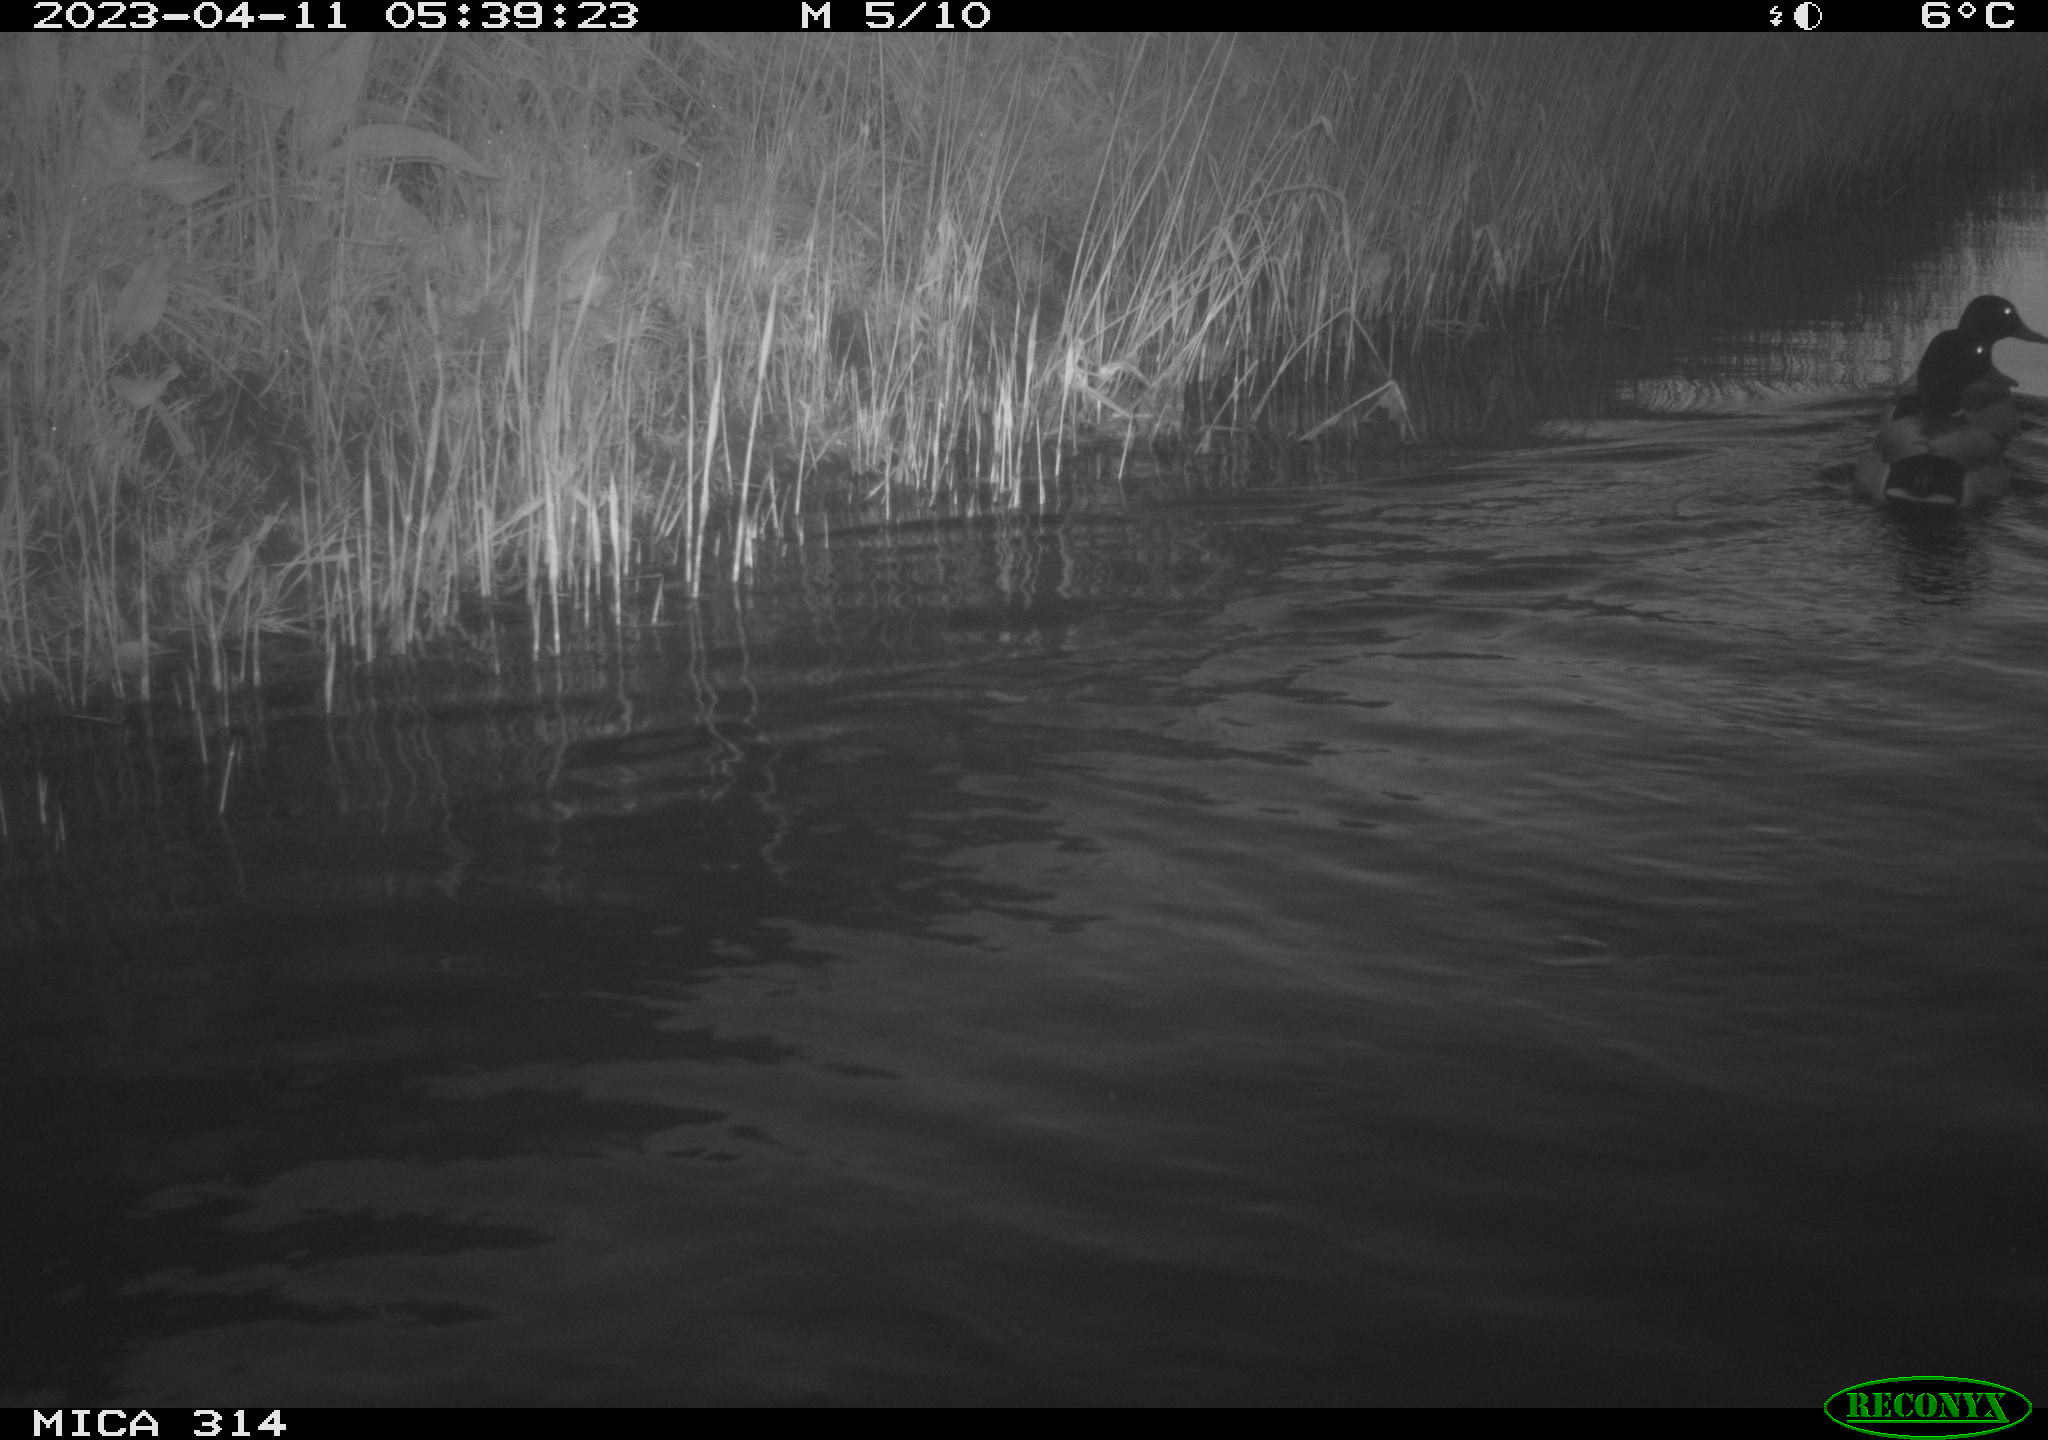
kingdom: Animalia
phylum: Chordata
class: Aves
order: Anseriformes
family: Anatidae
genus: Anas
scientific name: Anas
